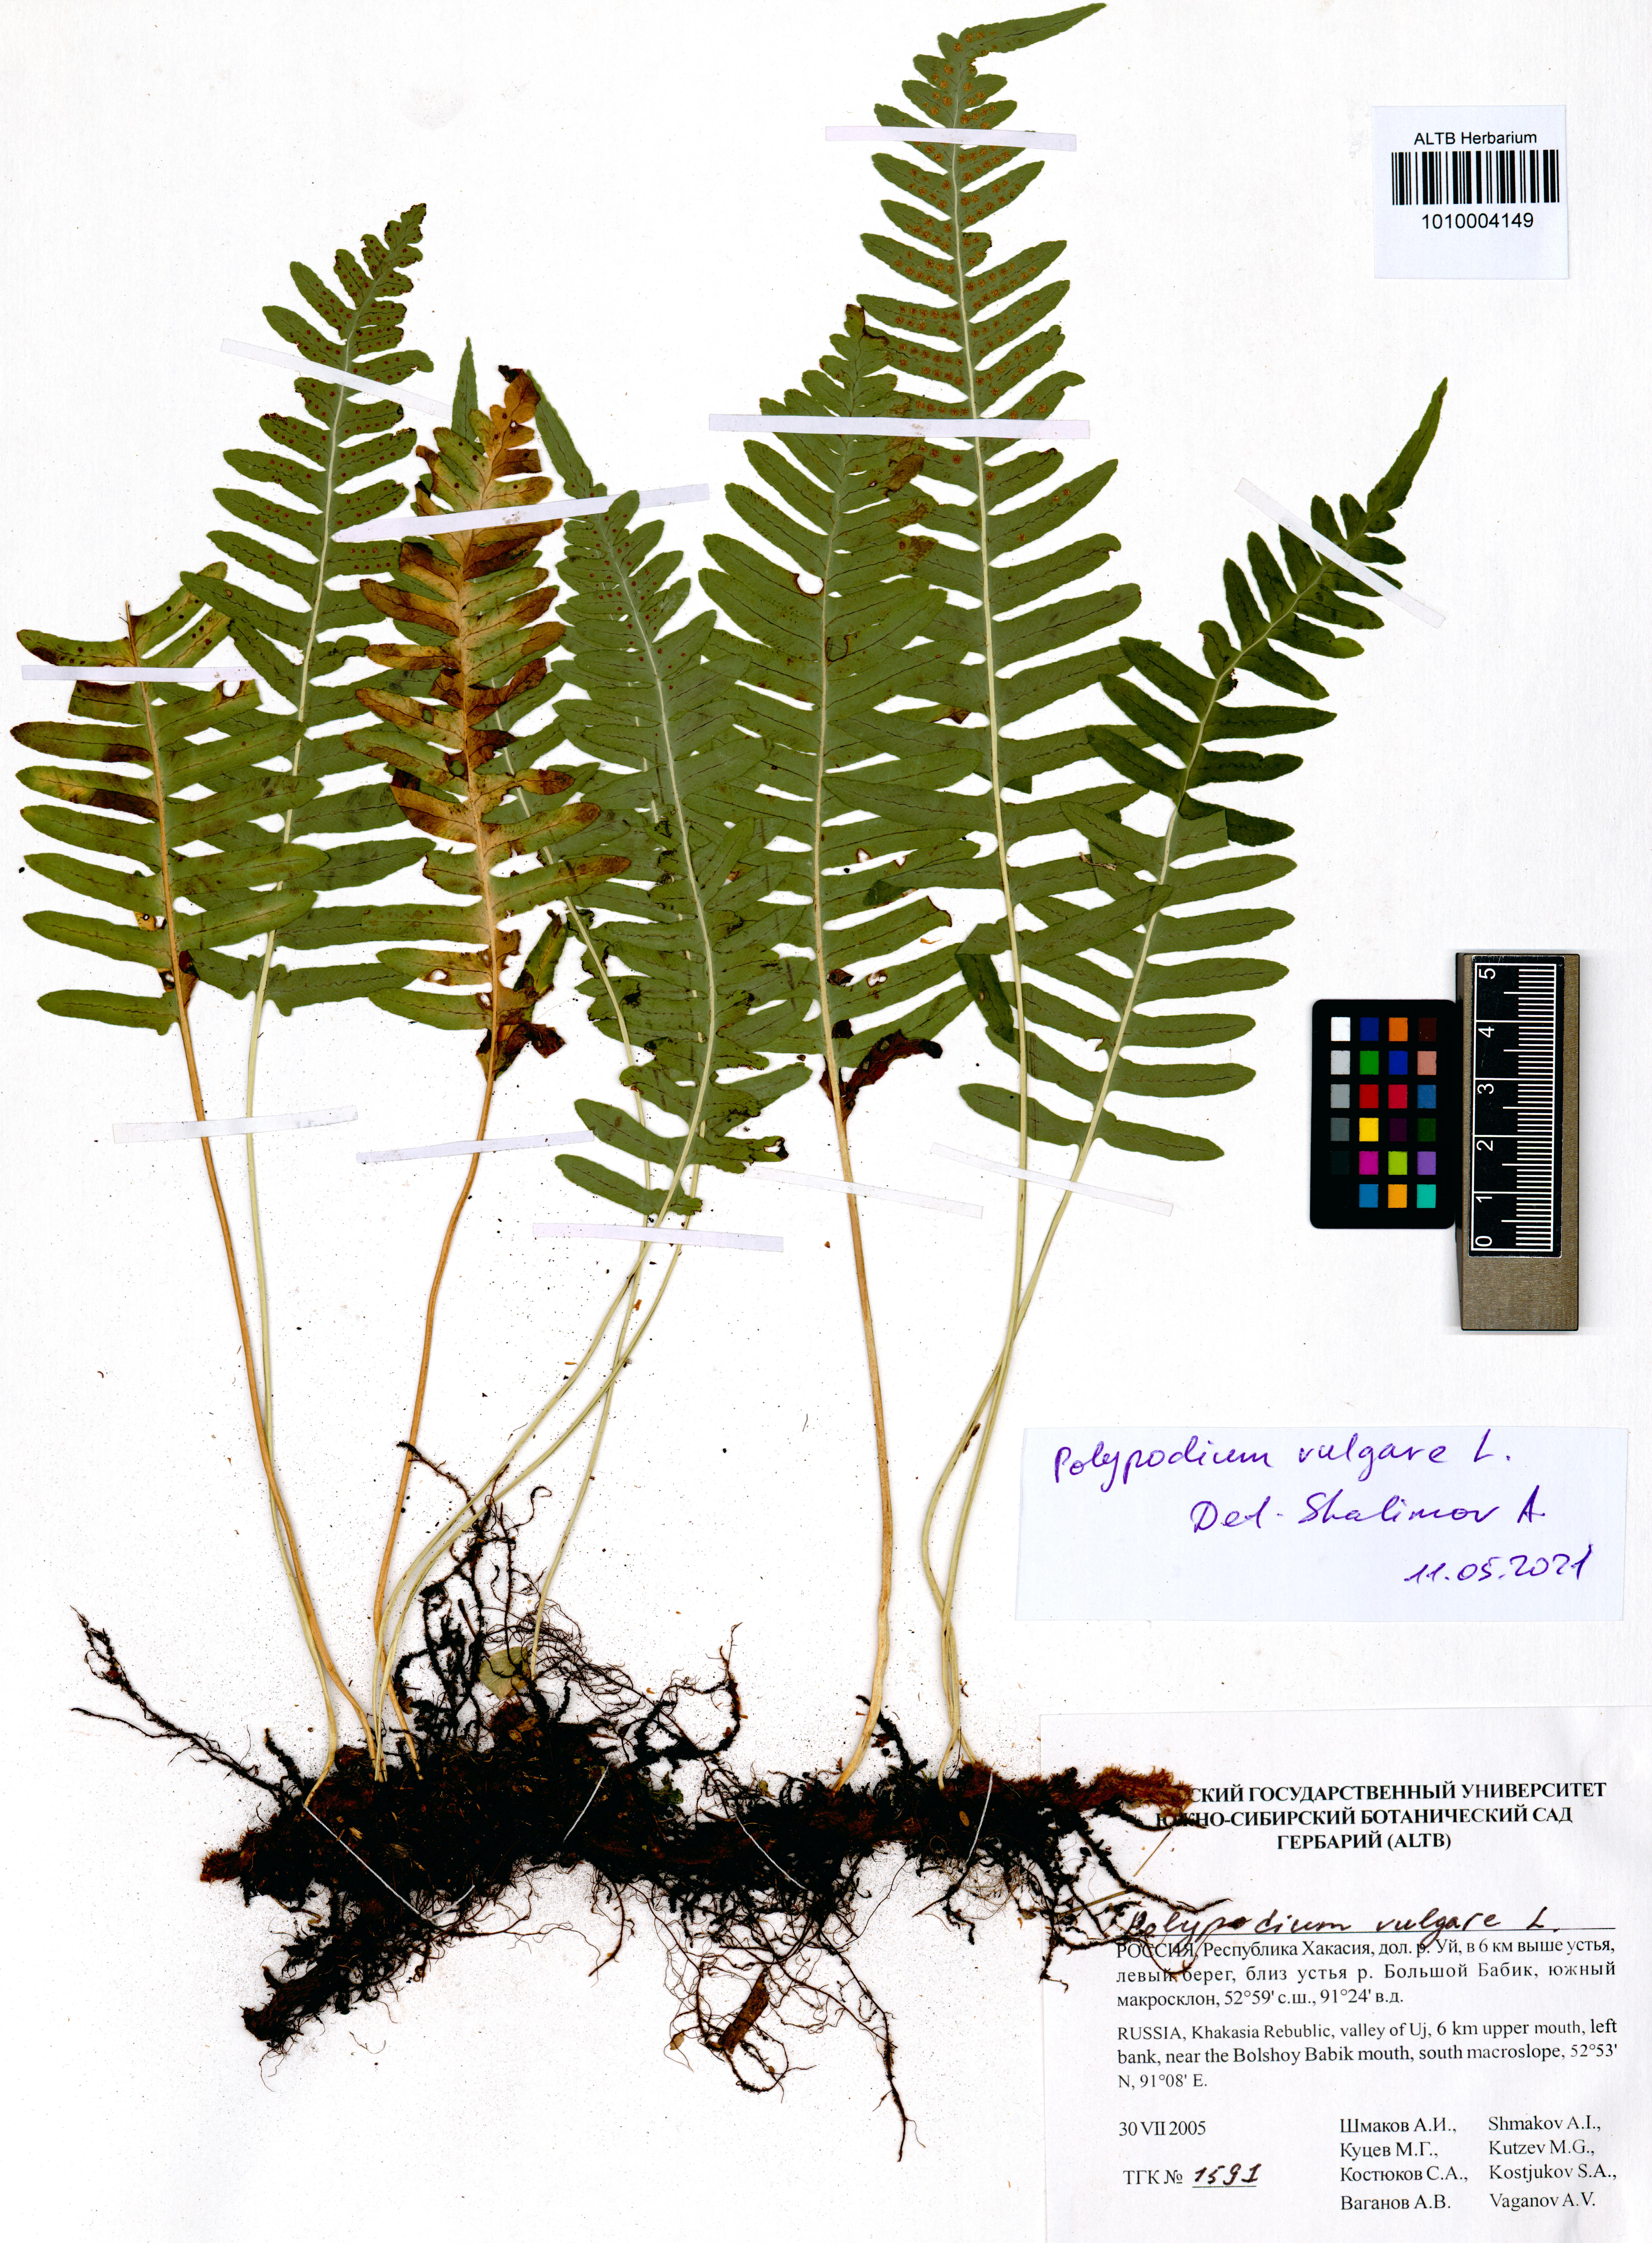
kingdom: Plantae
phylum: Tracheophyta
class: Polypodiopsida
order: Polypodiales
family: Polypodiaceae
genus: Polypodium
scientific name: Polypodium vulgare
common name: Common polypody
